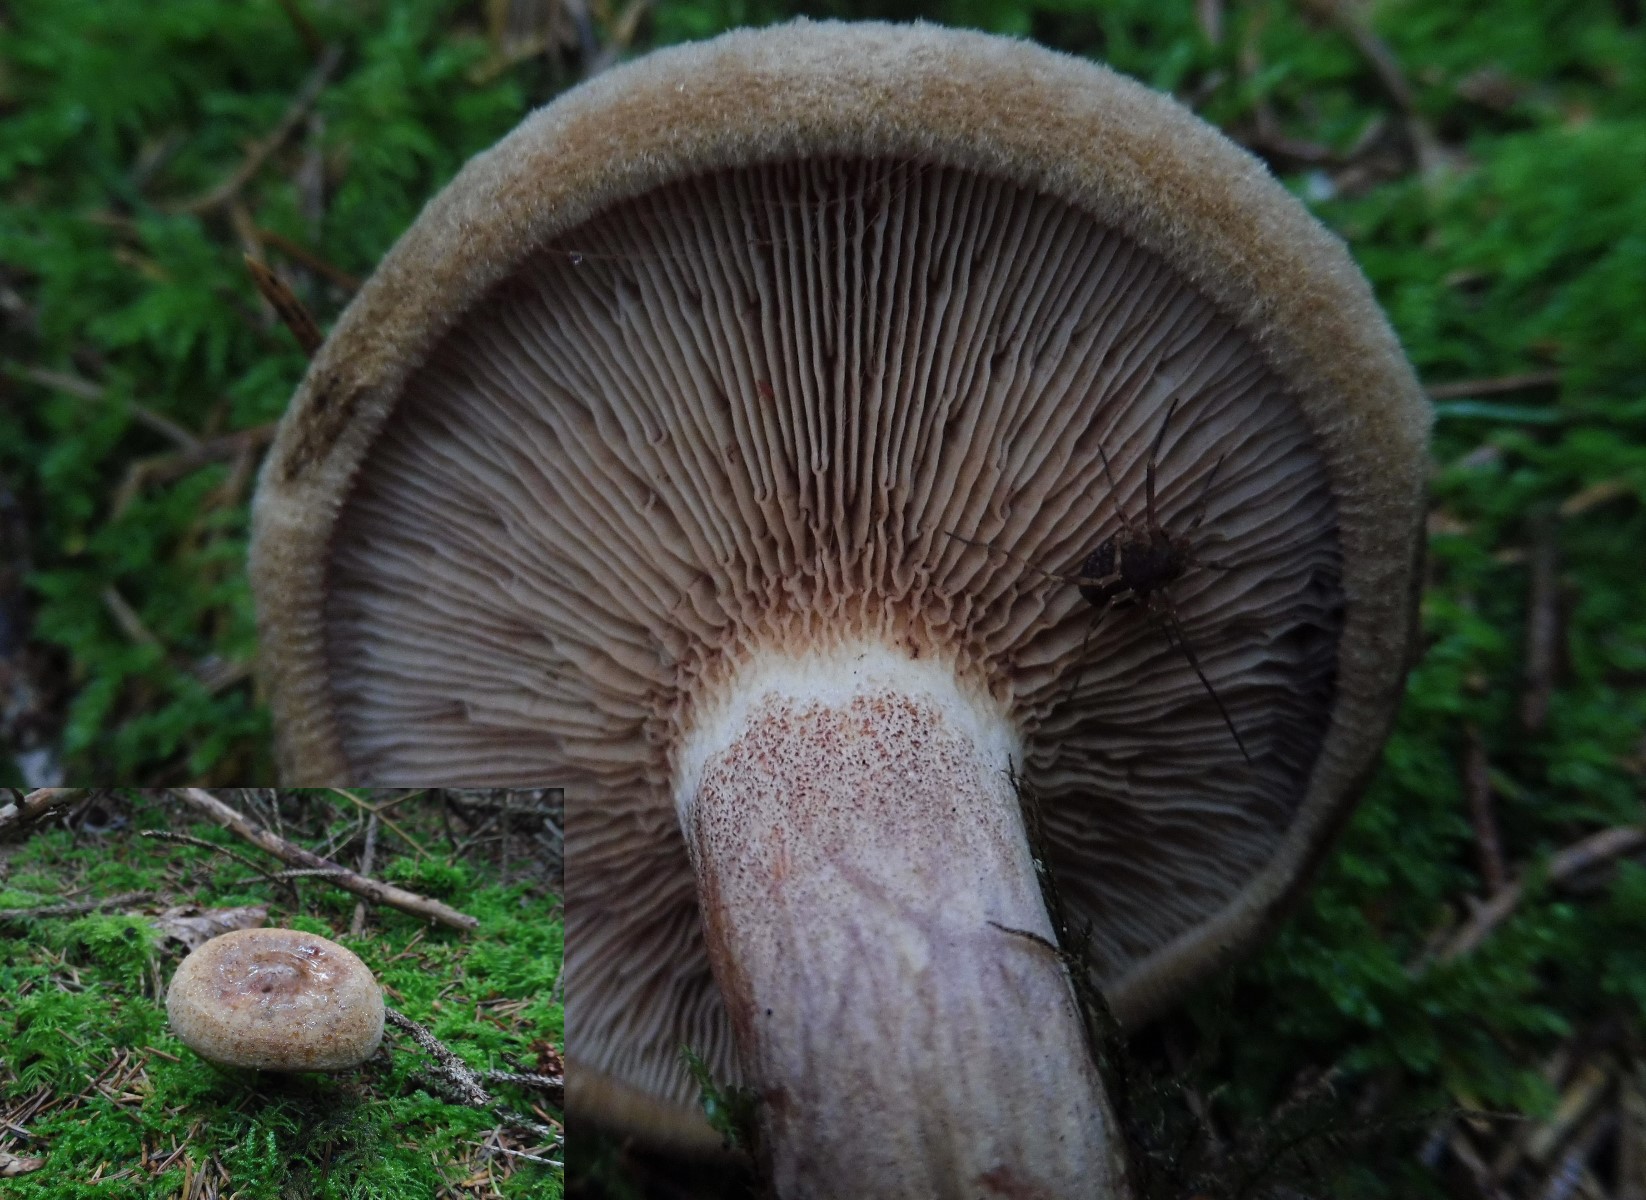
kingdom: Fungi
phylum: Basidiomycota
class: Agaricomycetes
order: Boletales
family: Paxillaceae
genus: Paxillus
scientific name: Paxillus involutus
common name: almindelig netbladhat
